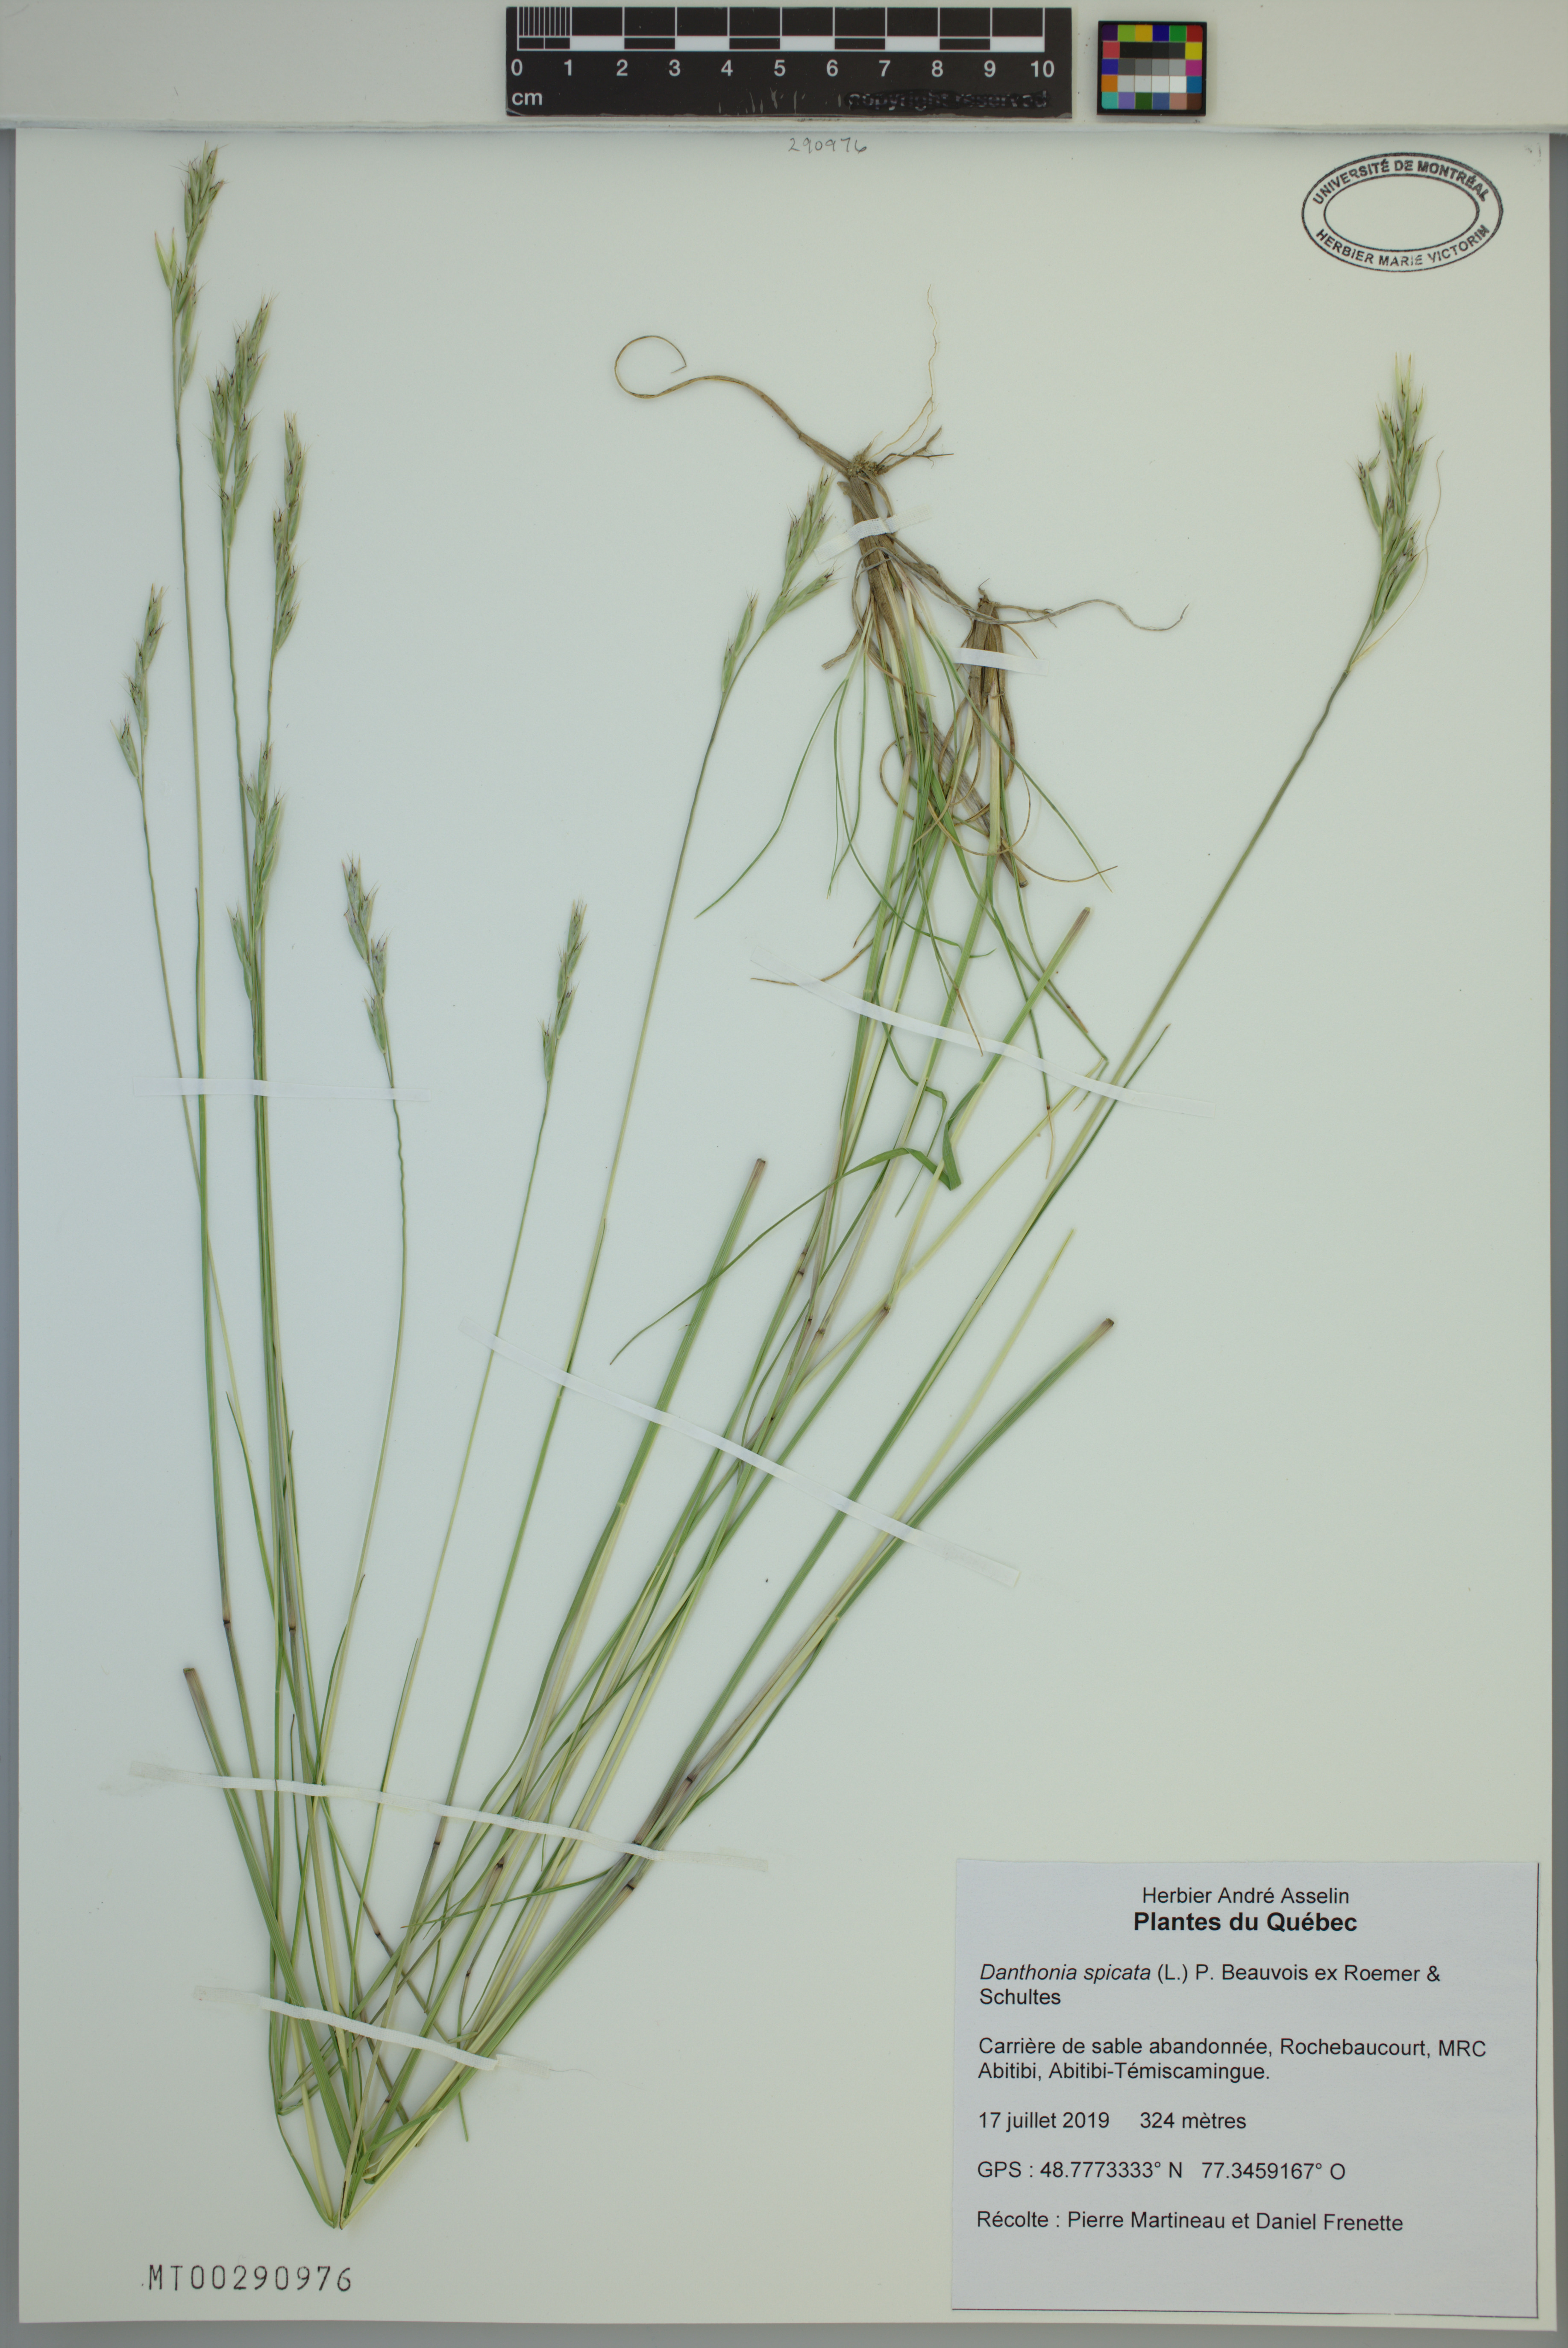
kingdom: Plantae
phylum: Tracheophyta
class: Liliopsida
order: Poales
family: Poaceae
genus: Danthonia
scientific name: Danthonia spicata
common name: Common wild oatgrass
